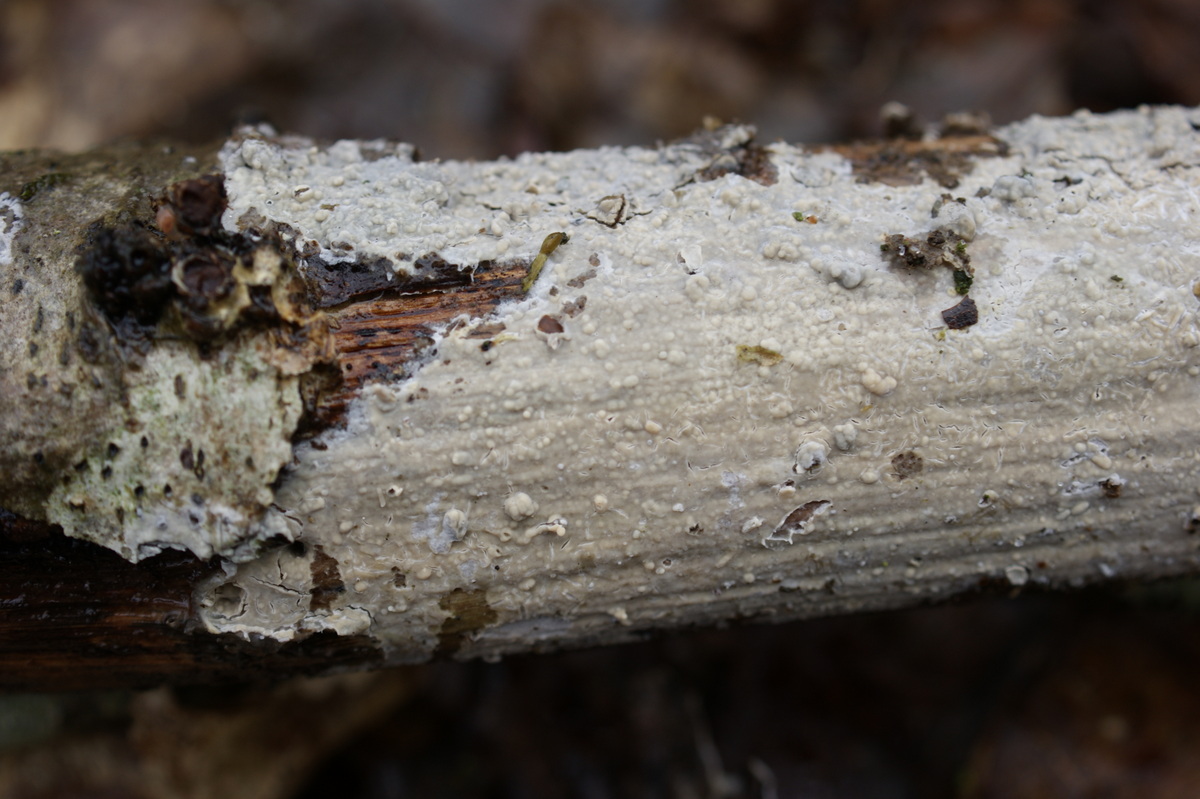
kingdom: Fungi
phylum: Basidiomycota
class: Agaricomycetes
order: Russulales
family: Stereaceae
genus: Gloeocystidiellum
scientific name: Gloeocystidiellum porosum
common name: mælkehvid olieskind
